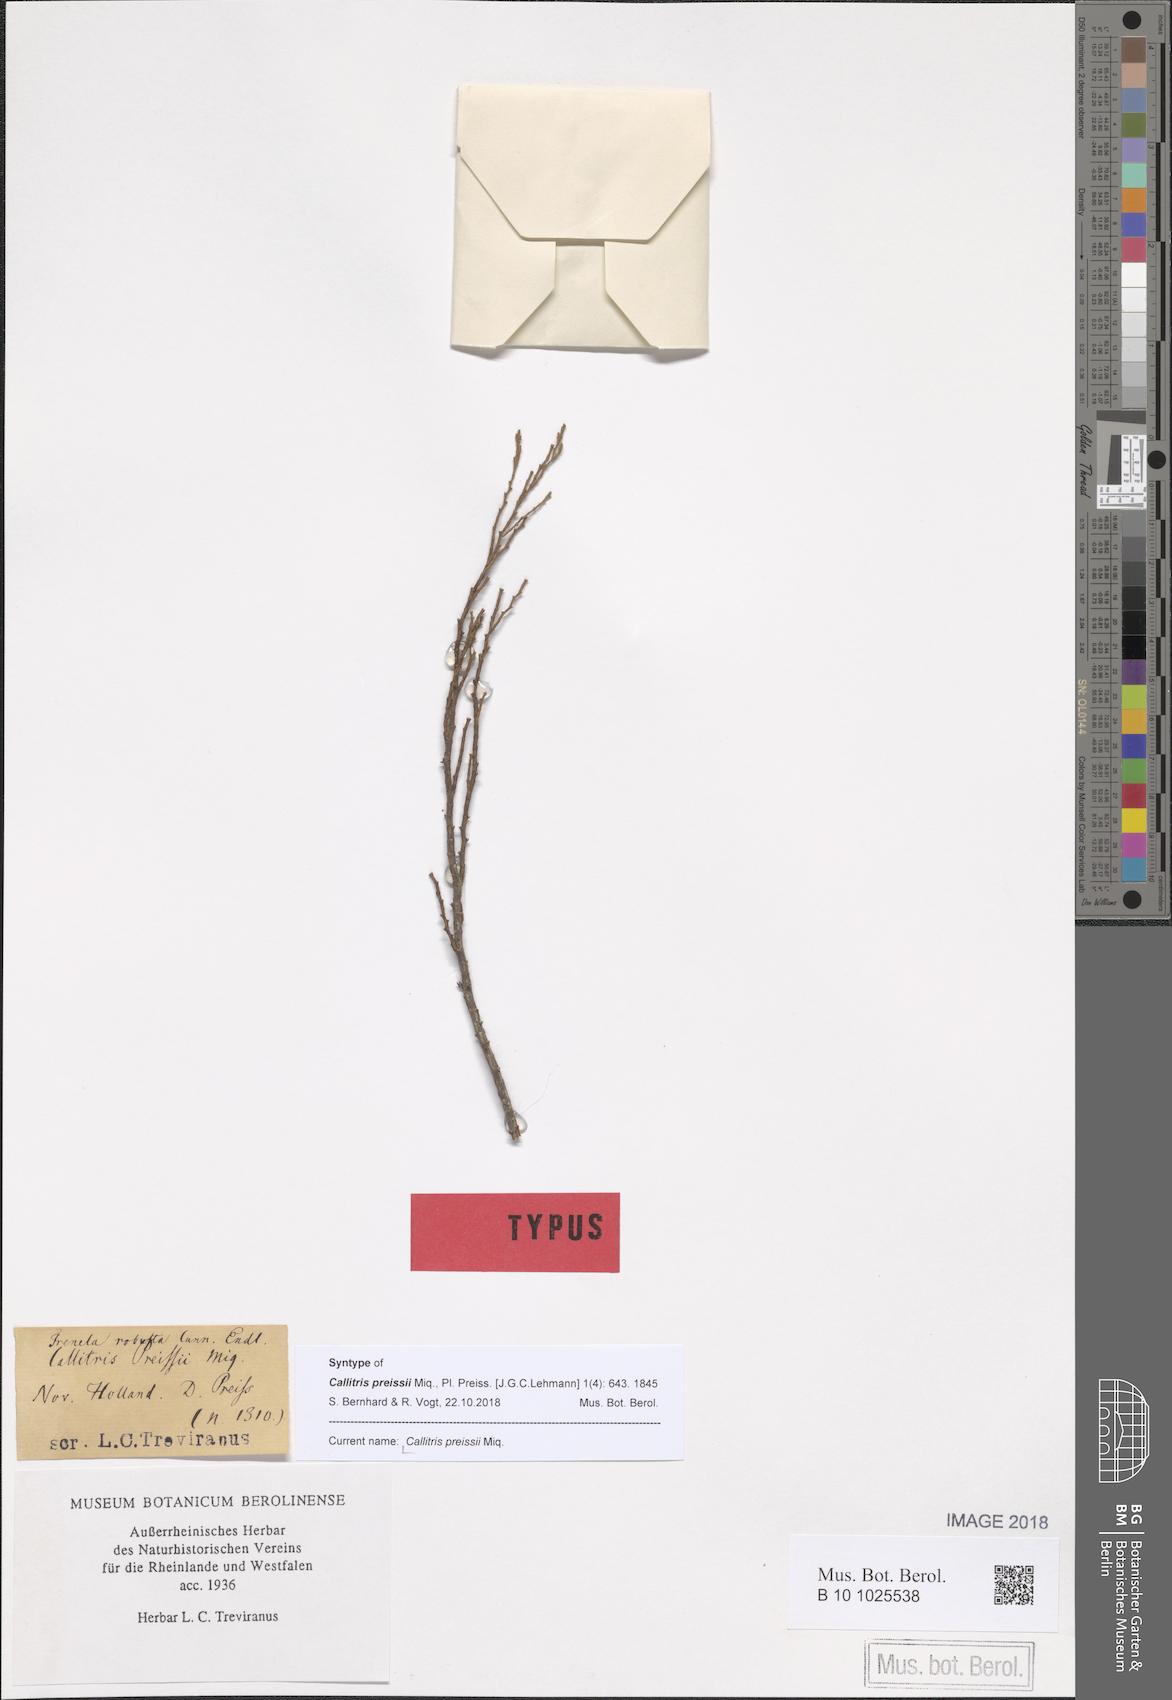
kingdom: Plantae
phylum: Tracheophyta
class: Pinopsida
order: Pinales
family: Cupressaceae
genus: Callitris
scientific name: Callitris preissii
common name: Mallee pine
